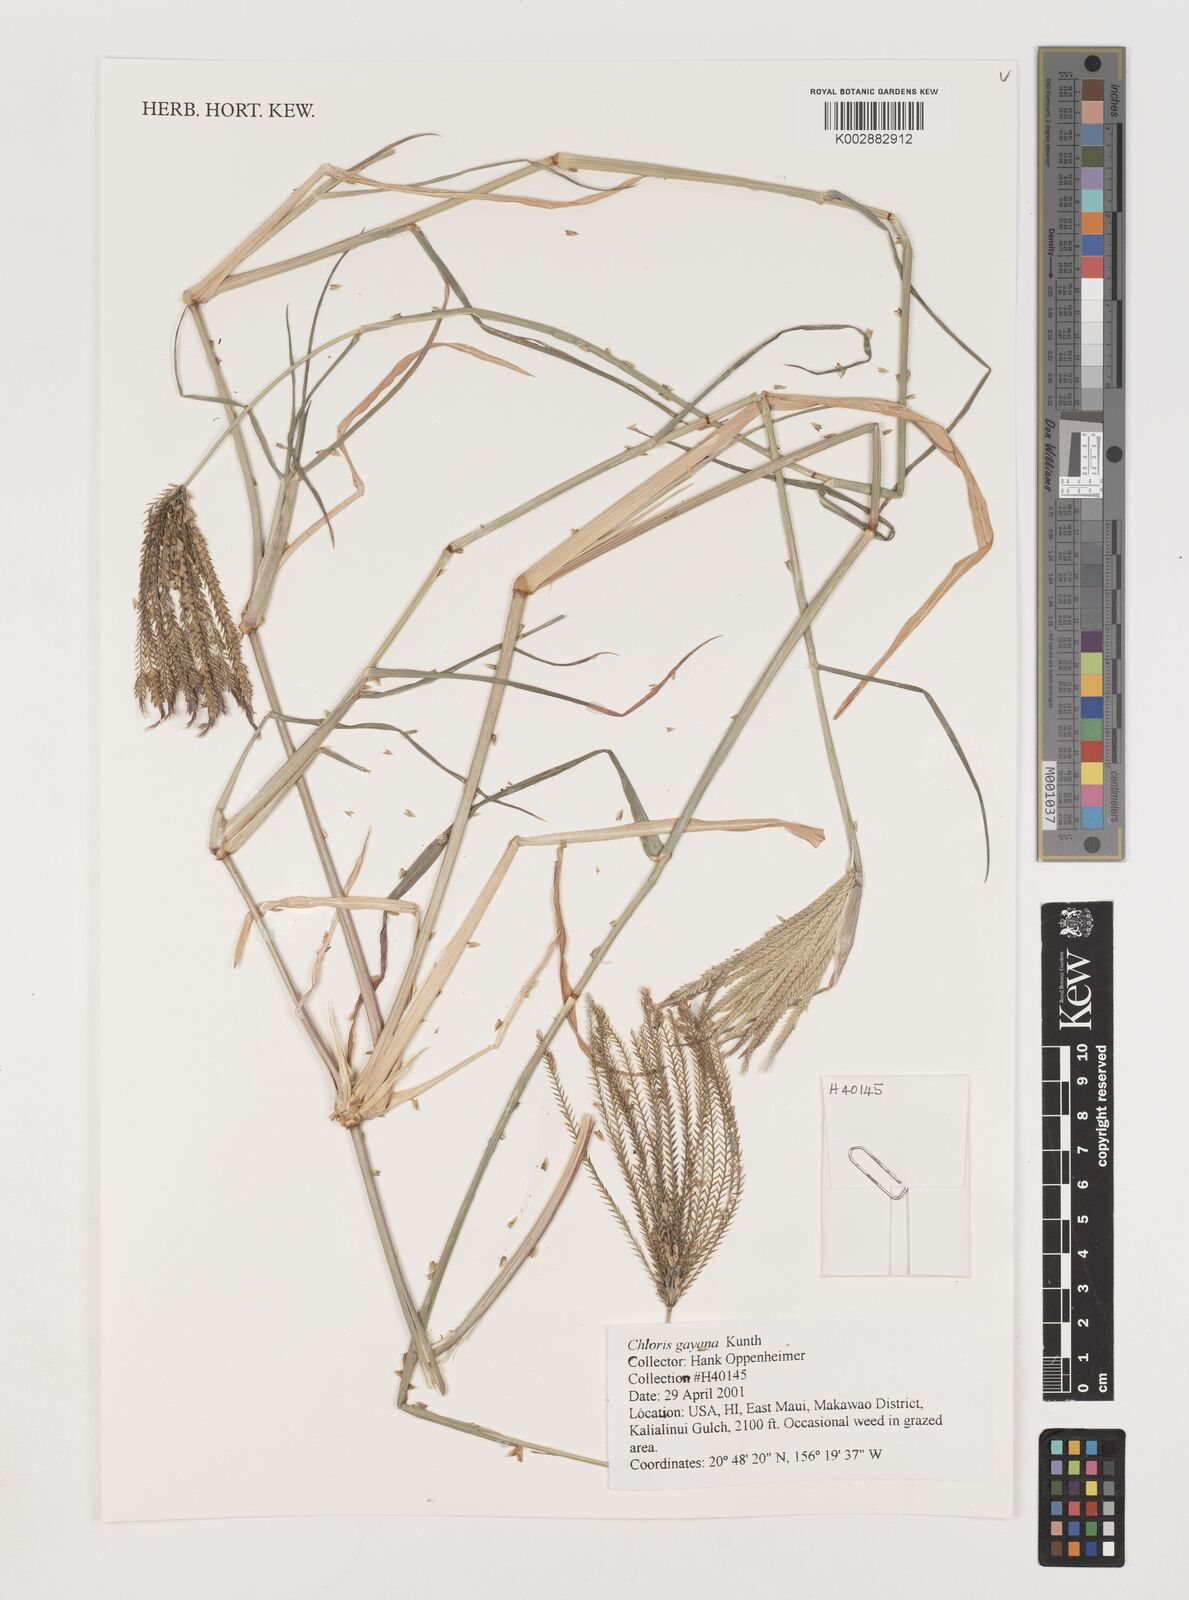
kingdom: Plantae
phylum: Tracheophyta
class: Liliopsida
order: Poales
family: Poaceae
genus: Chloris
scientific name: Chloris gayana
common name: Rhodes grass
